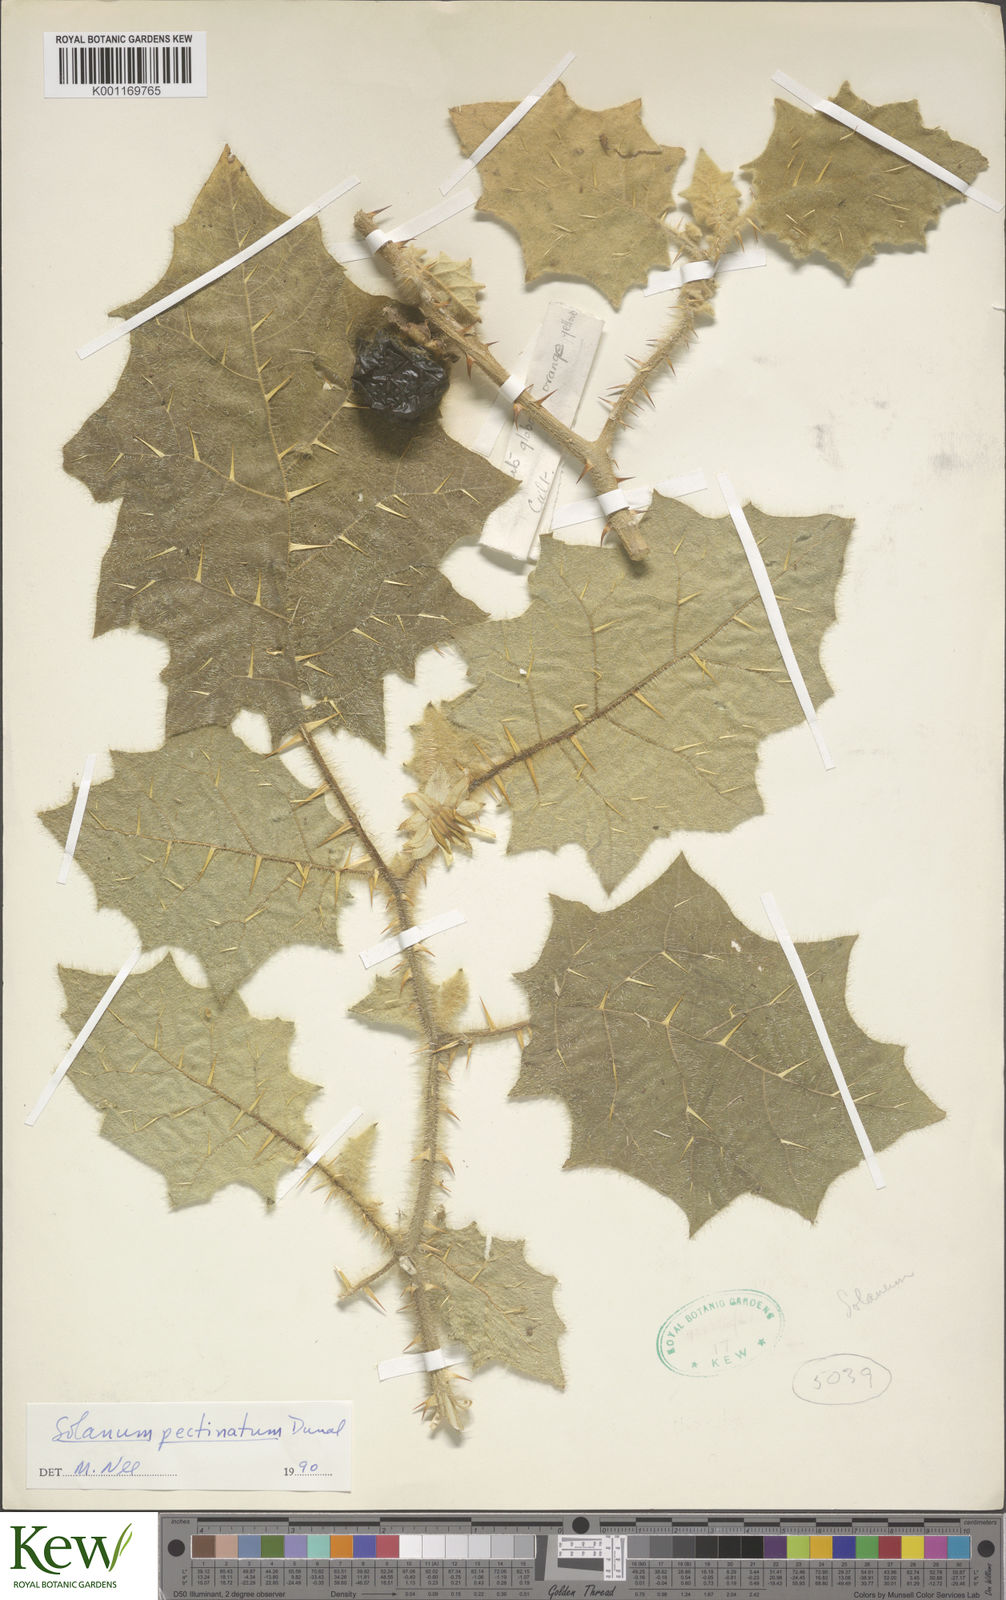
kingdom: Plantae
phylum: Tracheophyta
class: Magnoliopsida
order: Solanales
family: Solanaceae
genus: Solanum
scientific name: Solanum pectinatum
